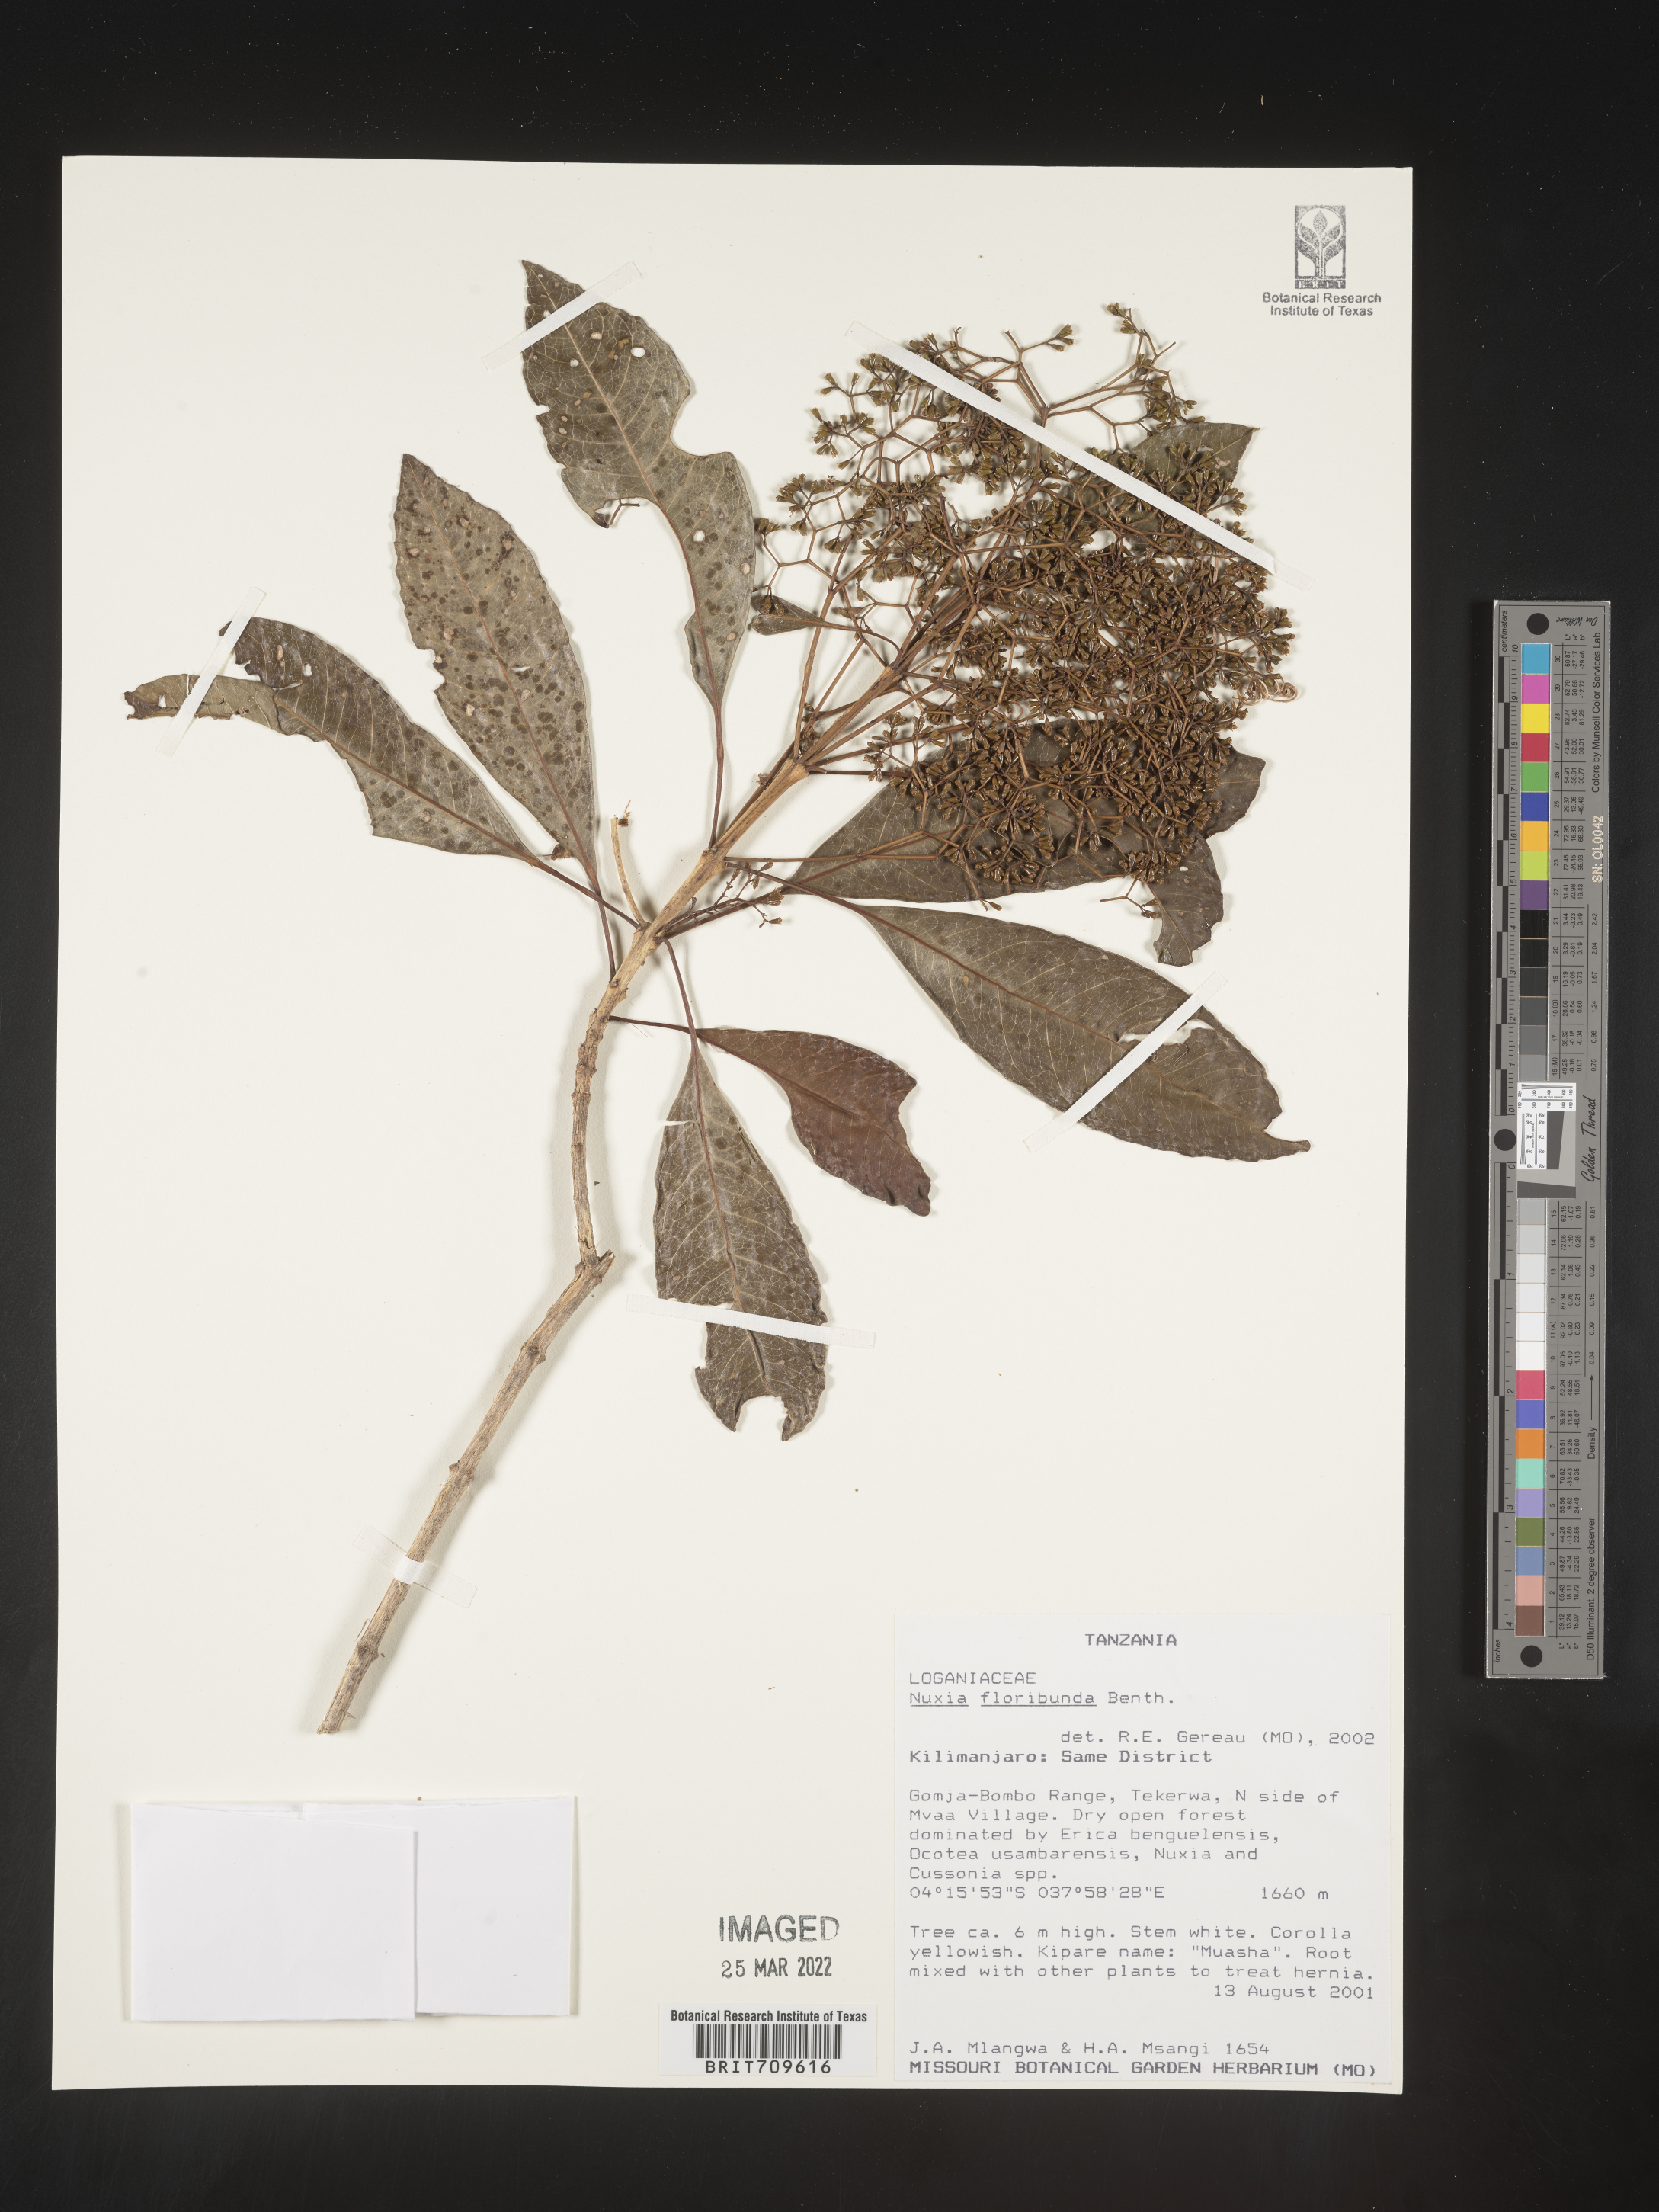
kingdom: Plantae
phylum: Tracheophyta
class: Magnoliopsida
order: Lamiales
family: Stilbaceae
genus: Nuxia
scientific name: Nuxia
